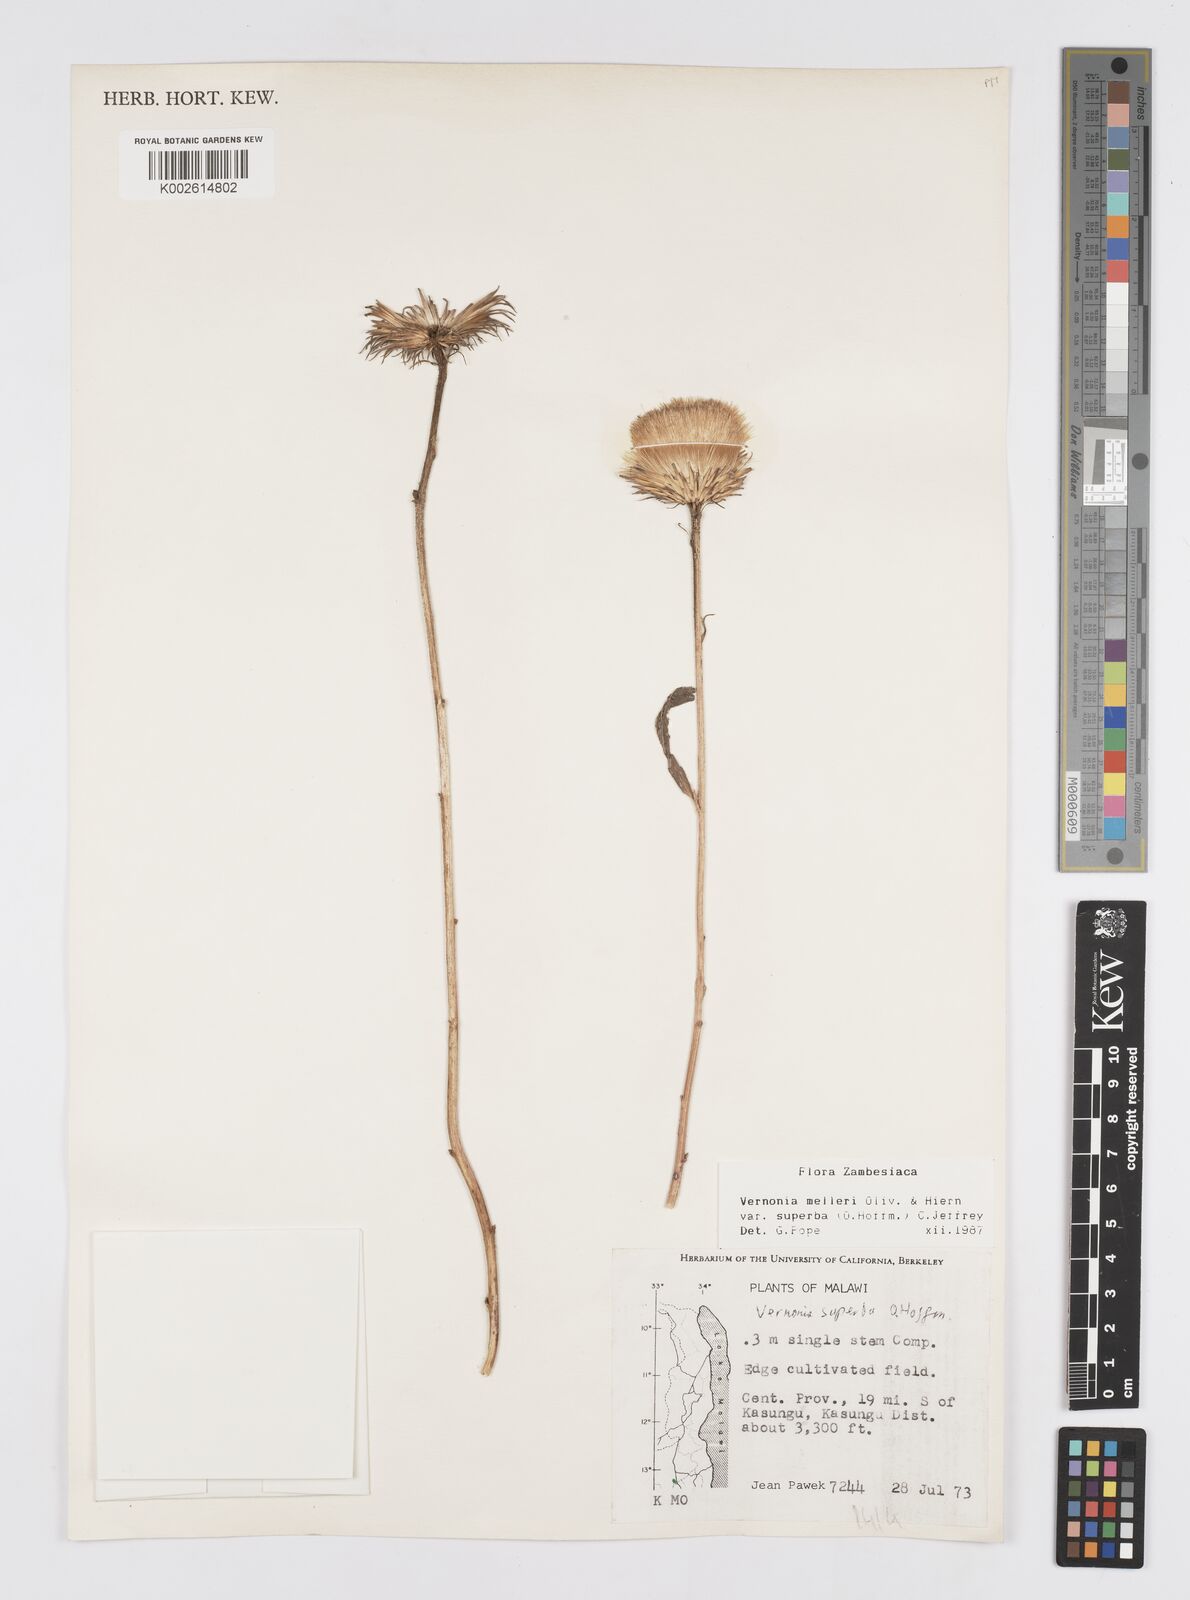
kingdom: Plantae
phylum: Tracheophyta
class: Magnoliopsida
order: Asterales
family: Asteraceae
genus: Linzia
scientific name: Linzia melleri
